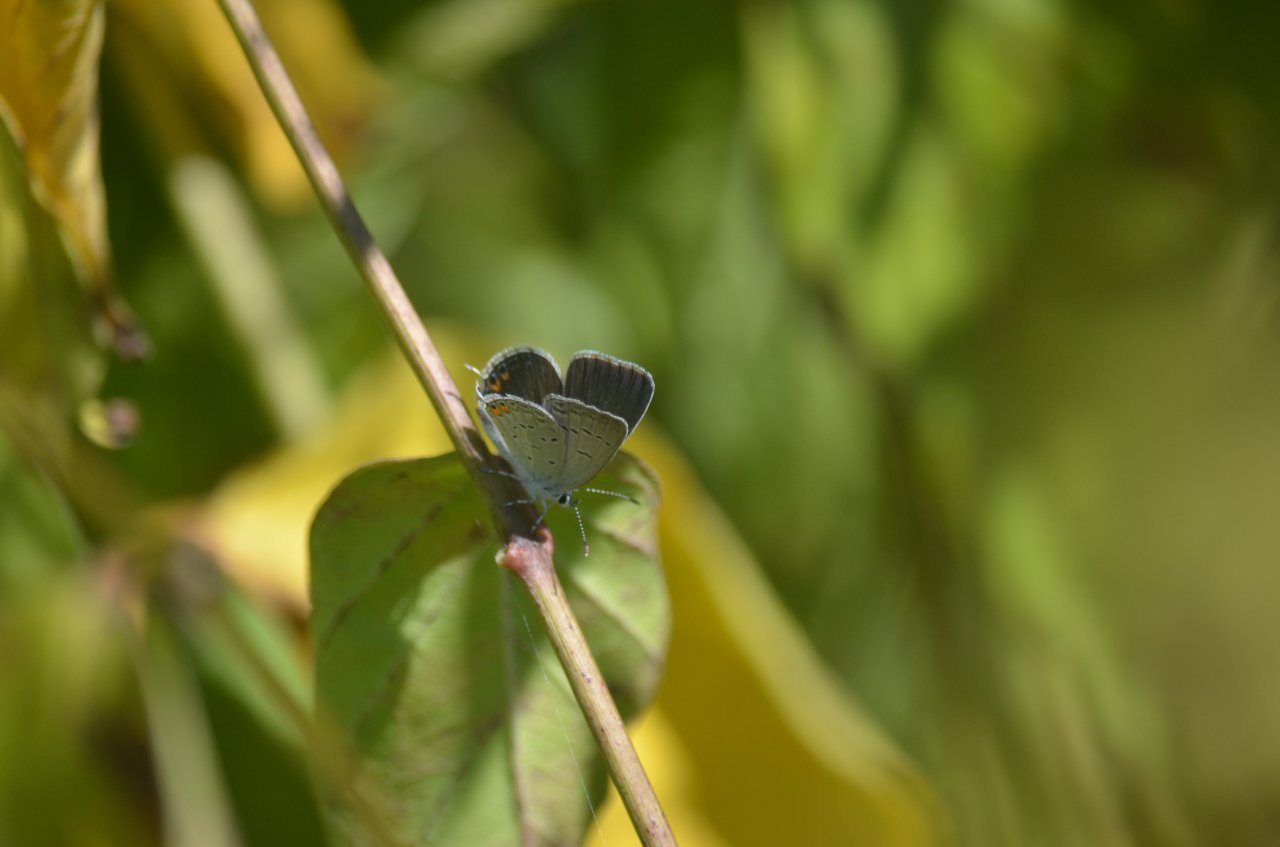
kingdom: Animalia
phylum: Arthropoda
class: Insecta
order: Lepidoptera
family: Lycaenidae
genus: Elkalyce
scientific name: Elkalyce comyntas
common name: Eastern Tailed-Blue
